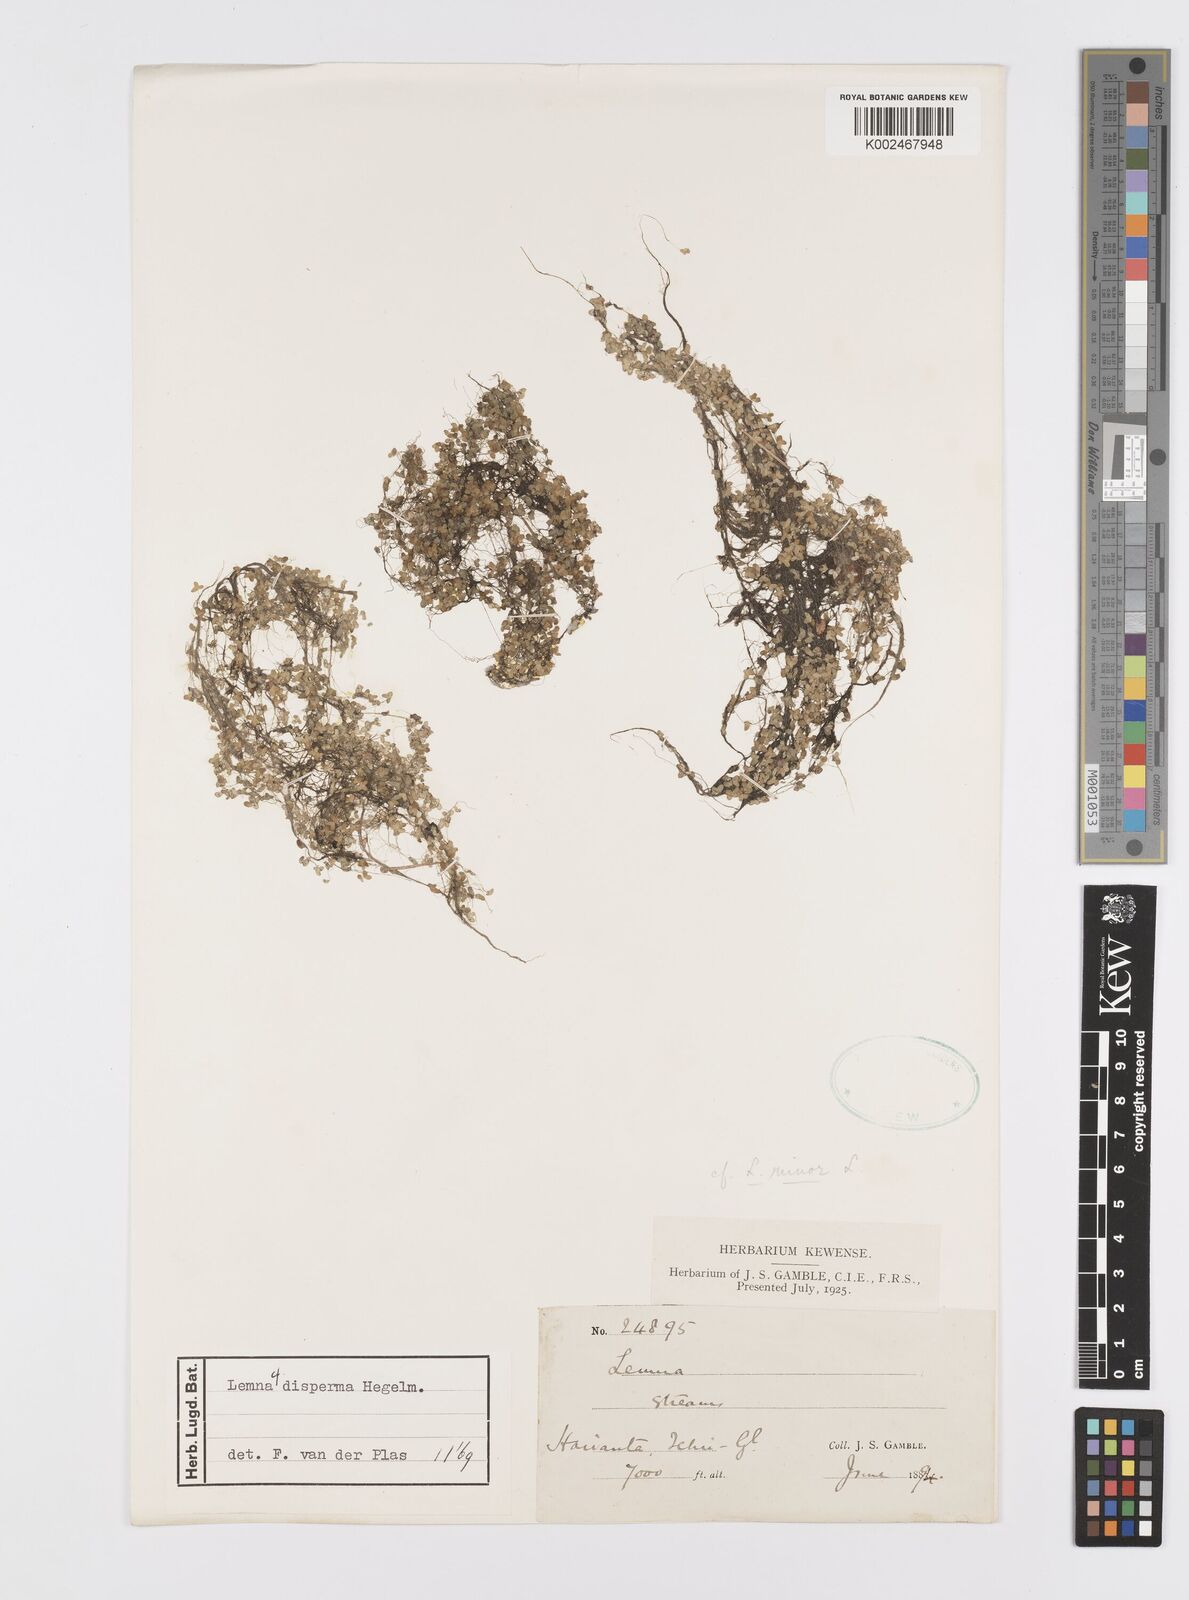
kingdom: Plantae
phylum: Tracheophyta
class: Liliopsida
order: Alismatales
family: Araceae
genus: Lemna
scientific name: Lemna disperma
